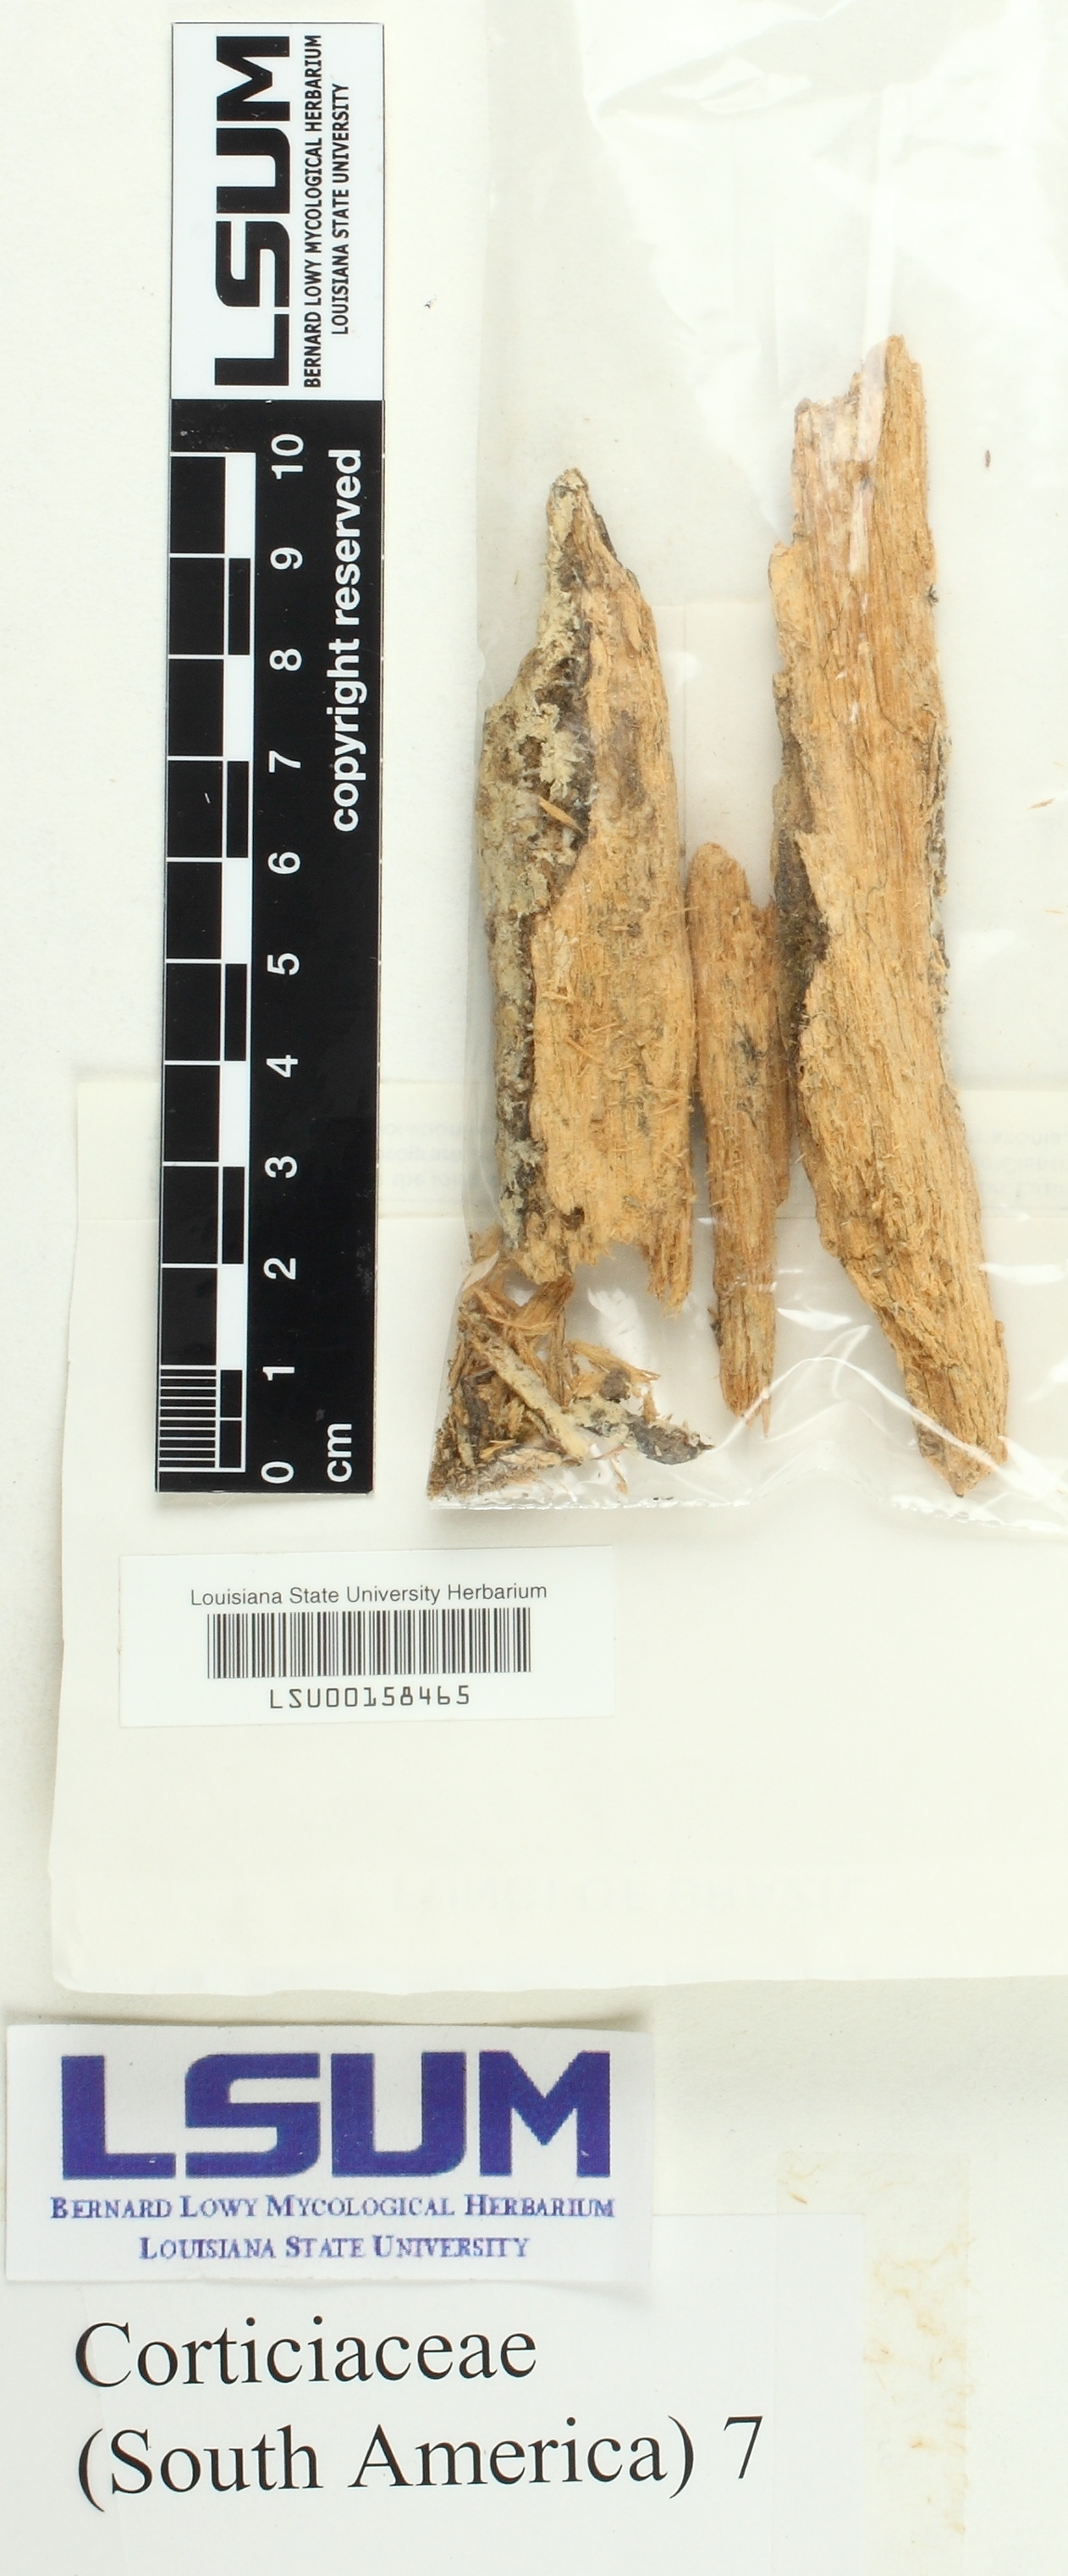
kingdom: Fungi
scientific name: Fungi
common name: Fungi
